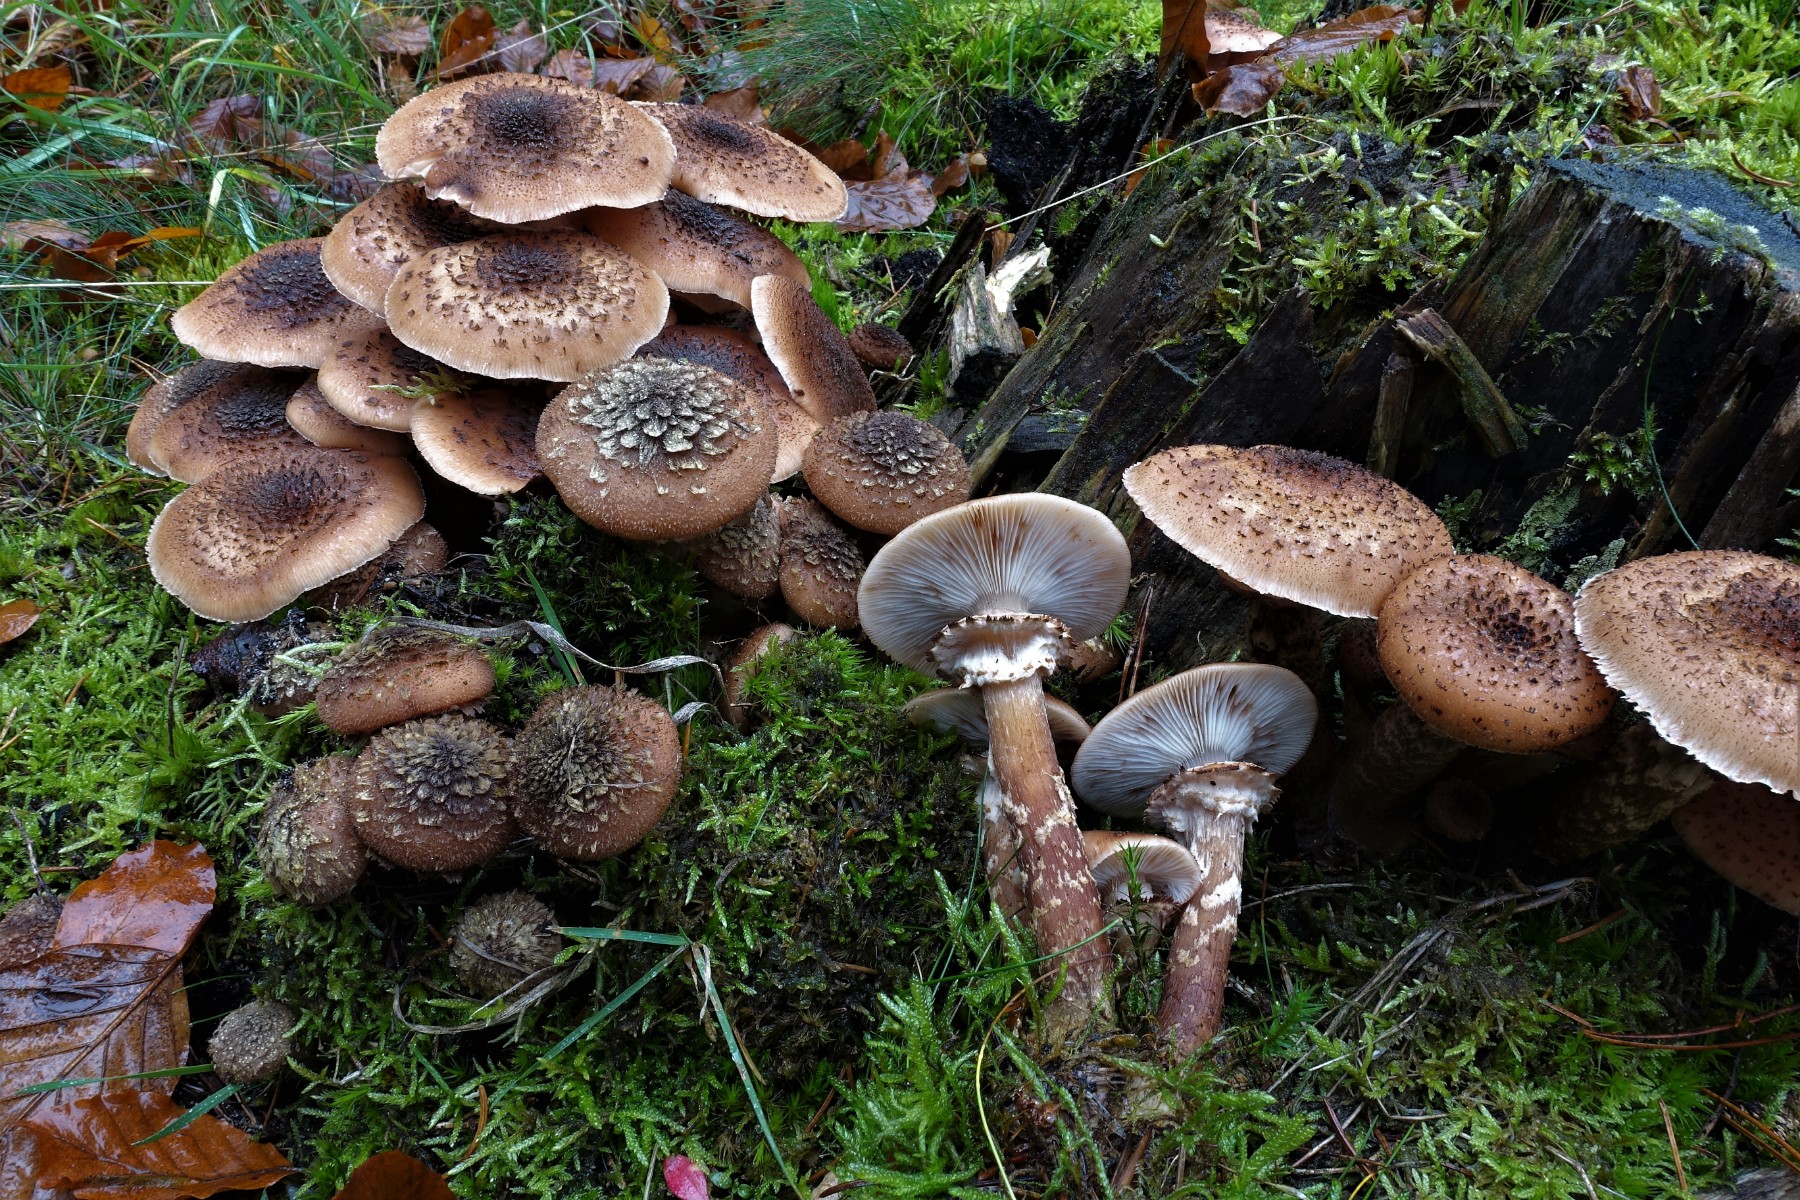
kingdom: Fungi
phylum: Basidiomycota
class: Agaricomycetes
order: Agaricales
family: Physalacriaceae
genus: Armillaria
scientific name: Armillaria ostoyae
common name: mørk honningsvamp
